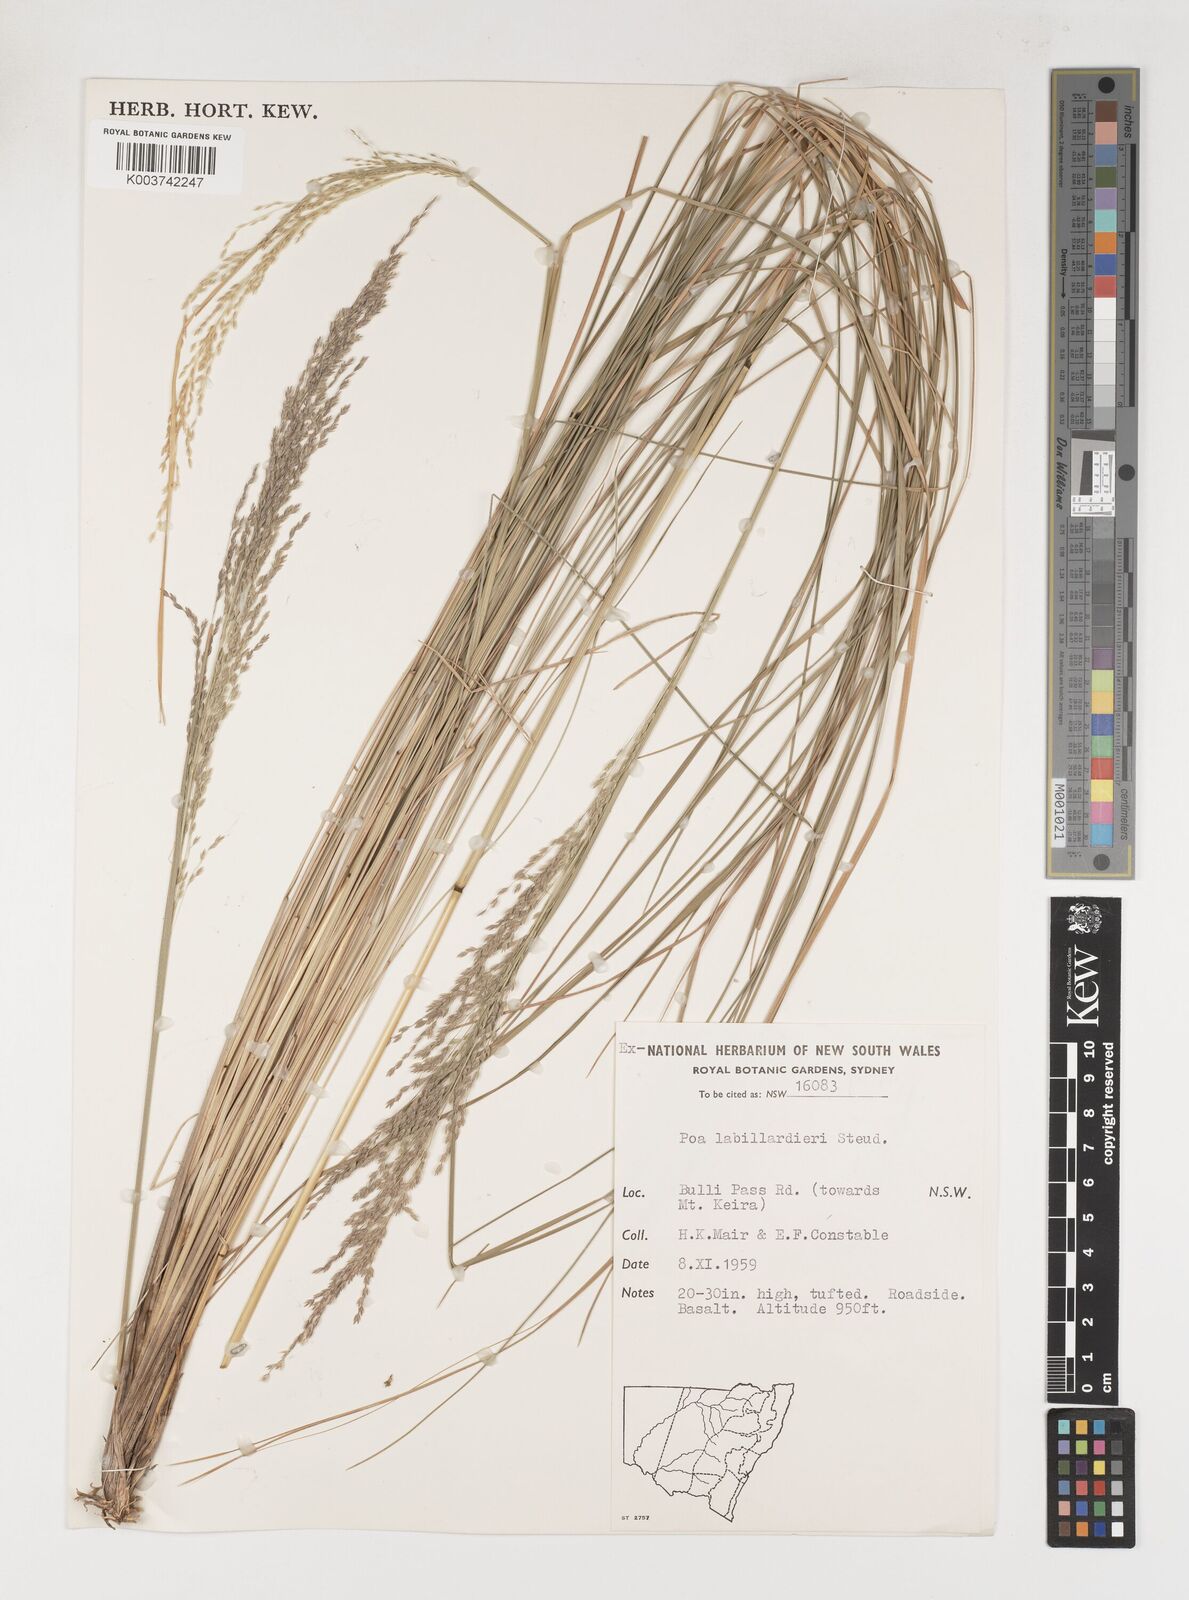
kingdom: Plantae
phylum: Tracheophyta
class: Liliopsida
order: Poales
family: Poaceae
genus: Poa
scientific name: Poa labillardierei
